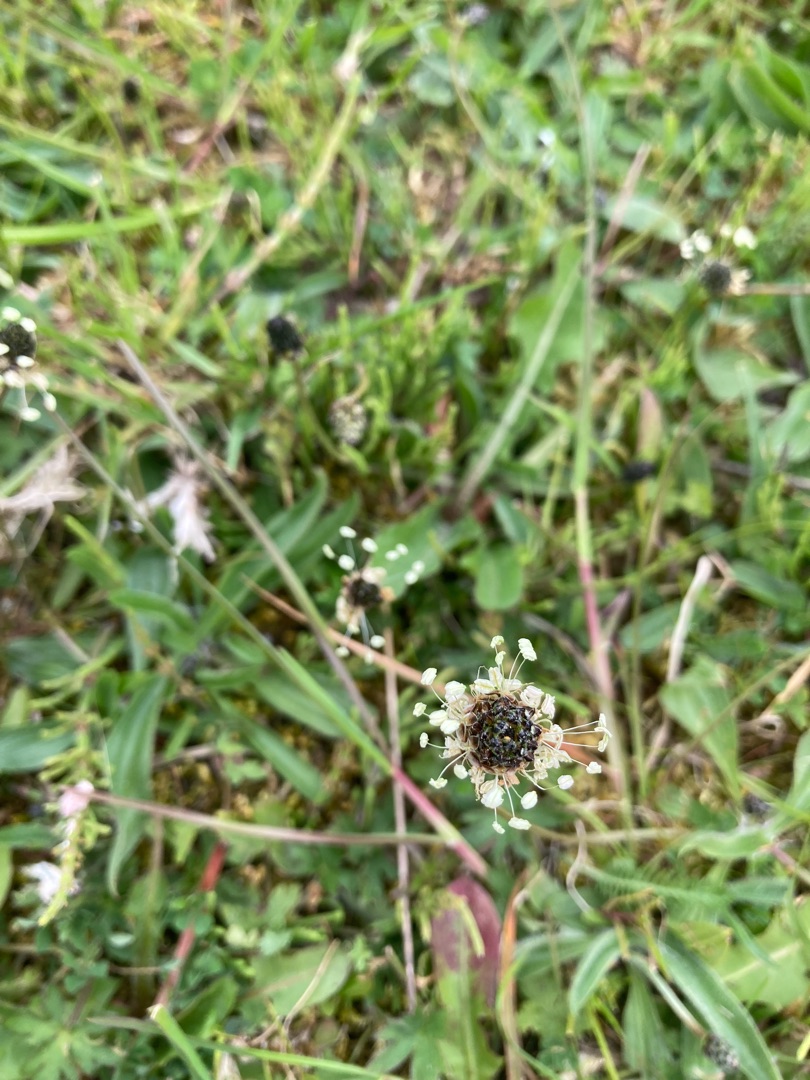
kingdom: Plantae
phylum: Tracheophyta
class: Magnoliopsida
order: Lamiales
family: Plantaginaceae
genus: Plantago
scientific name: Plantago lanceolata
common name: Lancet-vejbred
